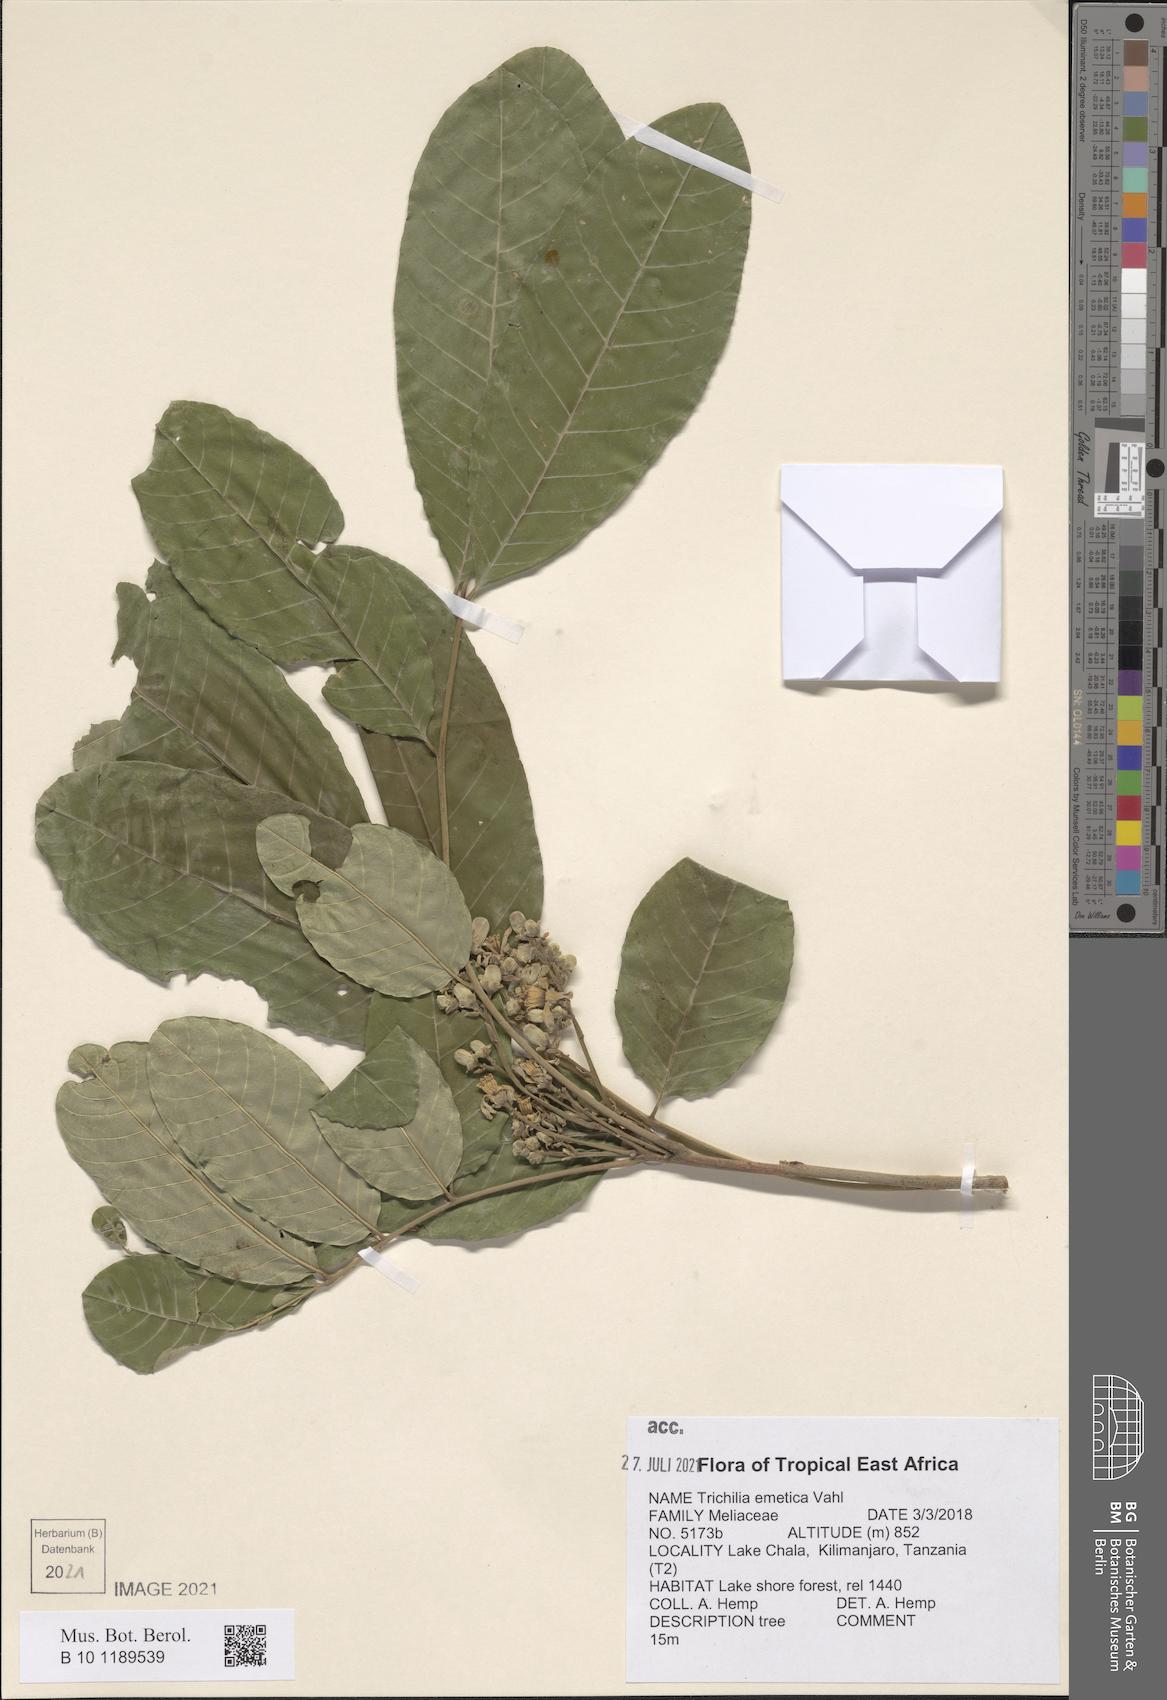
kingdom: Plantae
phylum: Tracheophyta
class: Magnoliopsida
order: Sapindales
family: Meliaceae
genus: Trichilia
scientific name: Trichilia emetica
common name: Christmas-bells
